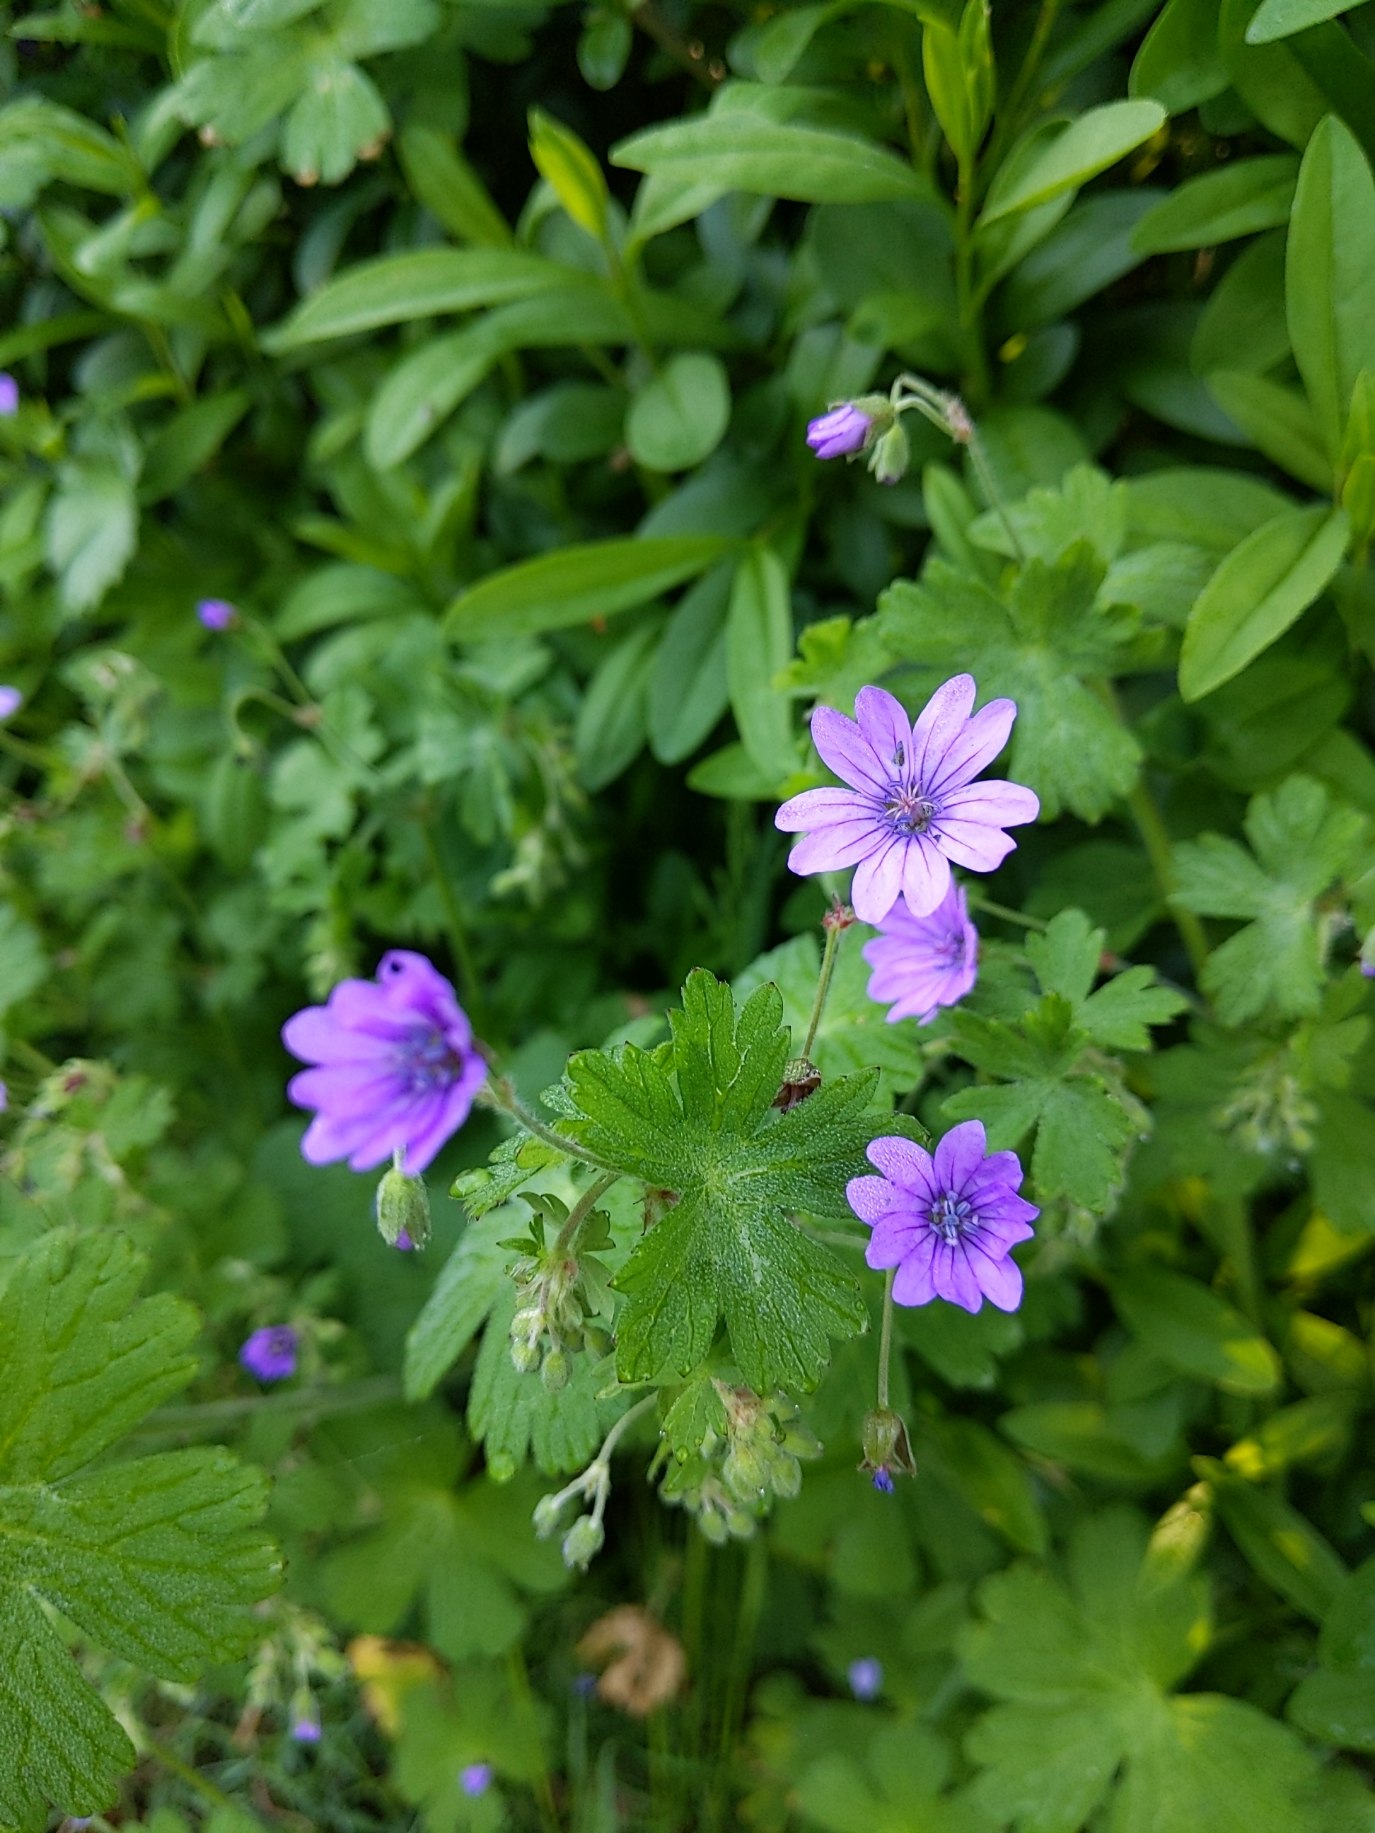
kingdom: Plantae
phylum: Tracheophyta
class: Magnoliopsida
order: Geraniales
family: Geraniaceae
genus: Geranium
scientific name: Geranium pyrenaicum
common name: Pyrenæisk storkenæb
